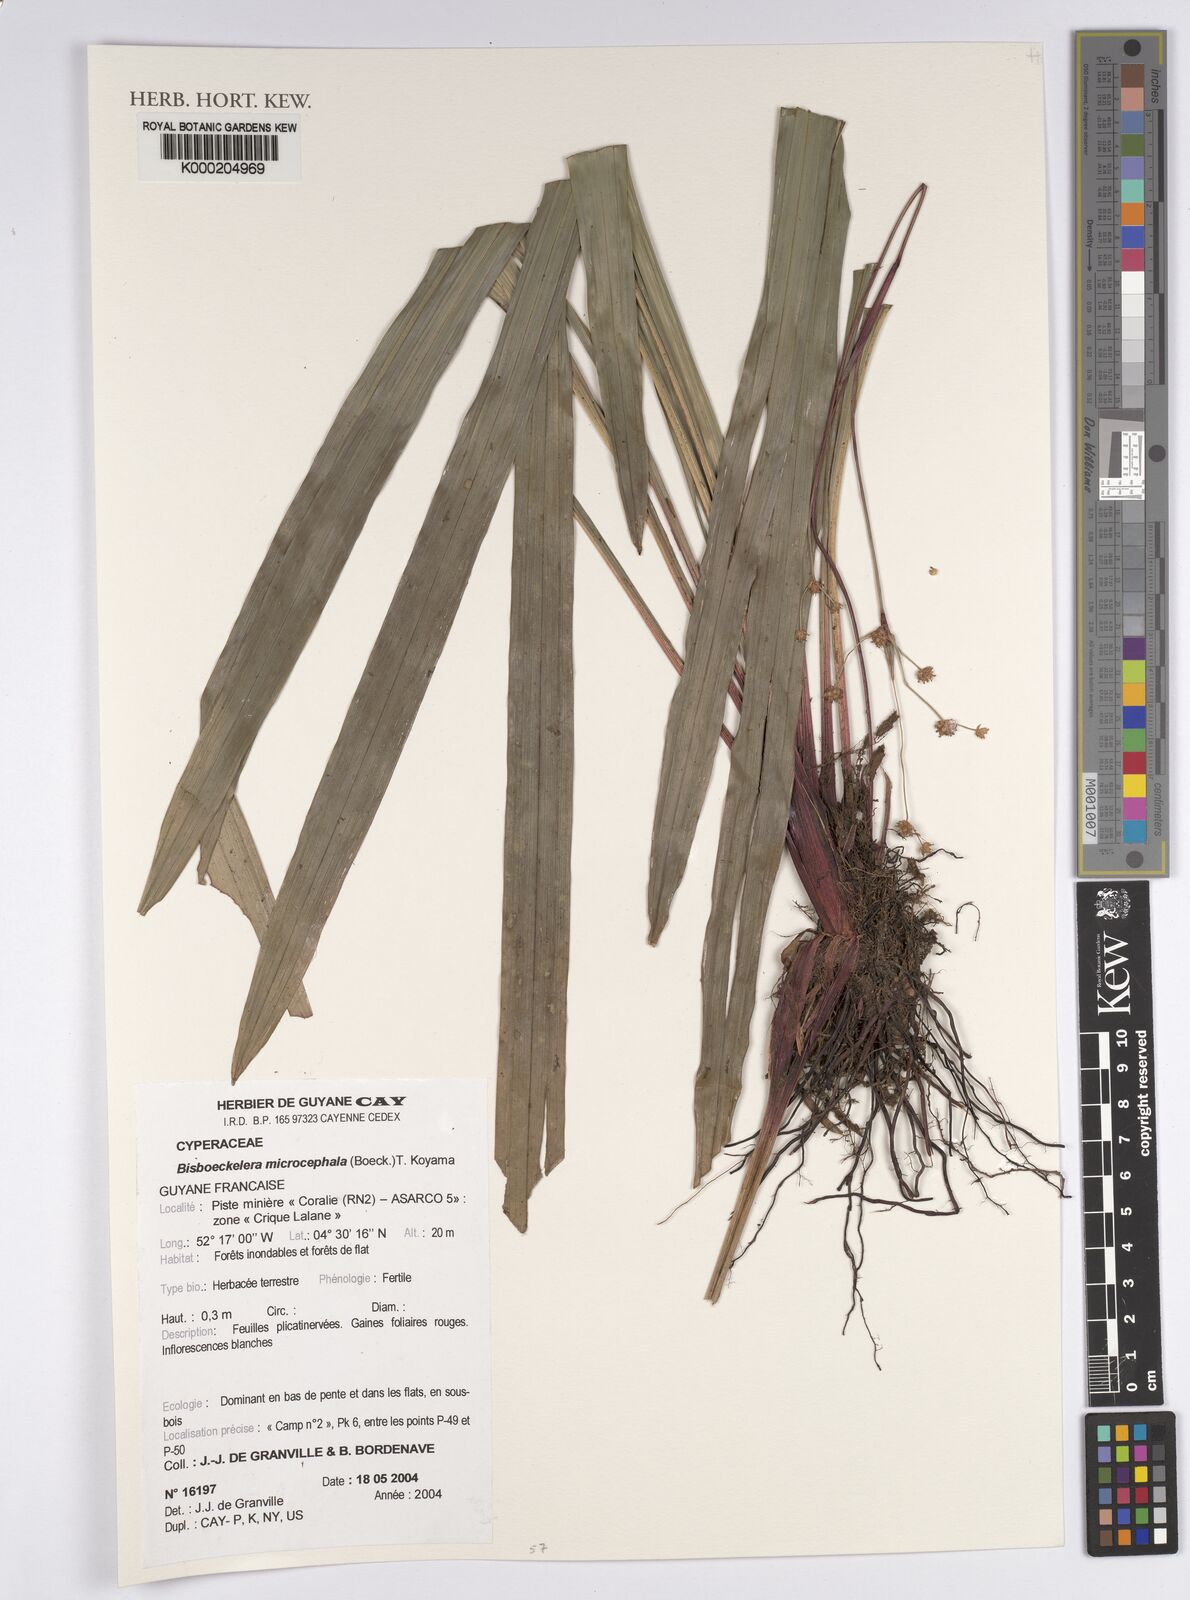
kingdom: Plantae
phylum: Tracheophyta
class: Liliopsida
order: Poales
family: Cyperaceae
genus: Bisboeckelera
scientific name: Bisboeckelera microcephala
